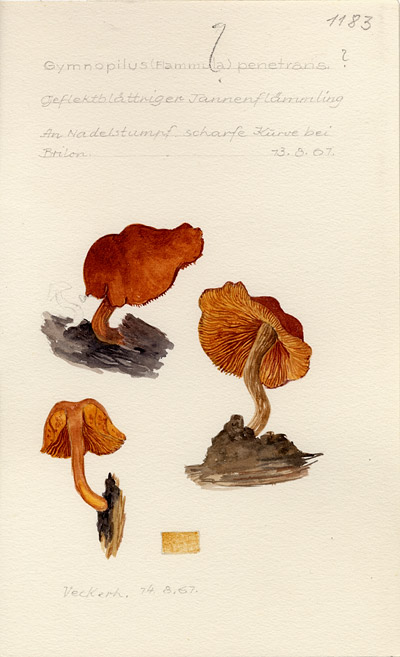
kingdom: Fungi
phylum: Basidiomycota
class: Agaricomycetes
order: Agaricales
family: Hymenogastraceae
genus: Gymnopilus
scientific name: Gymnopilus penetrans
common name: Common rustgill
